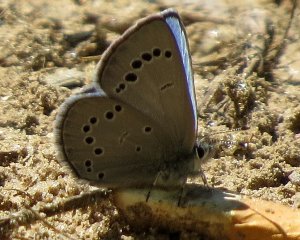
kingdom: Animalia
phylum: Arthropoda
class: Insecta
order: Lepidoptera
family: Lycaenidae
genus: Glaucopsyche
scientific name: Glaucopsyche lygdamus
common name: Silvery Blue
